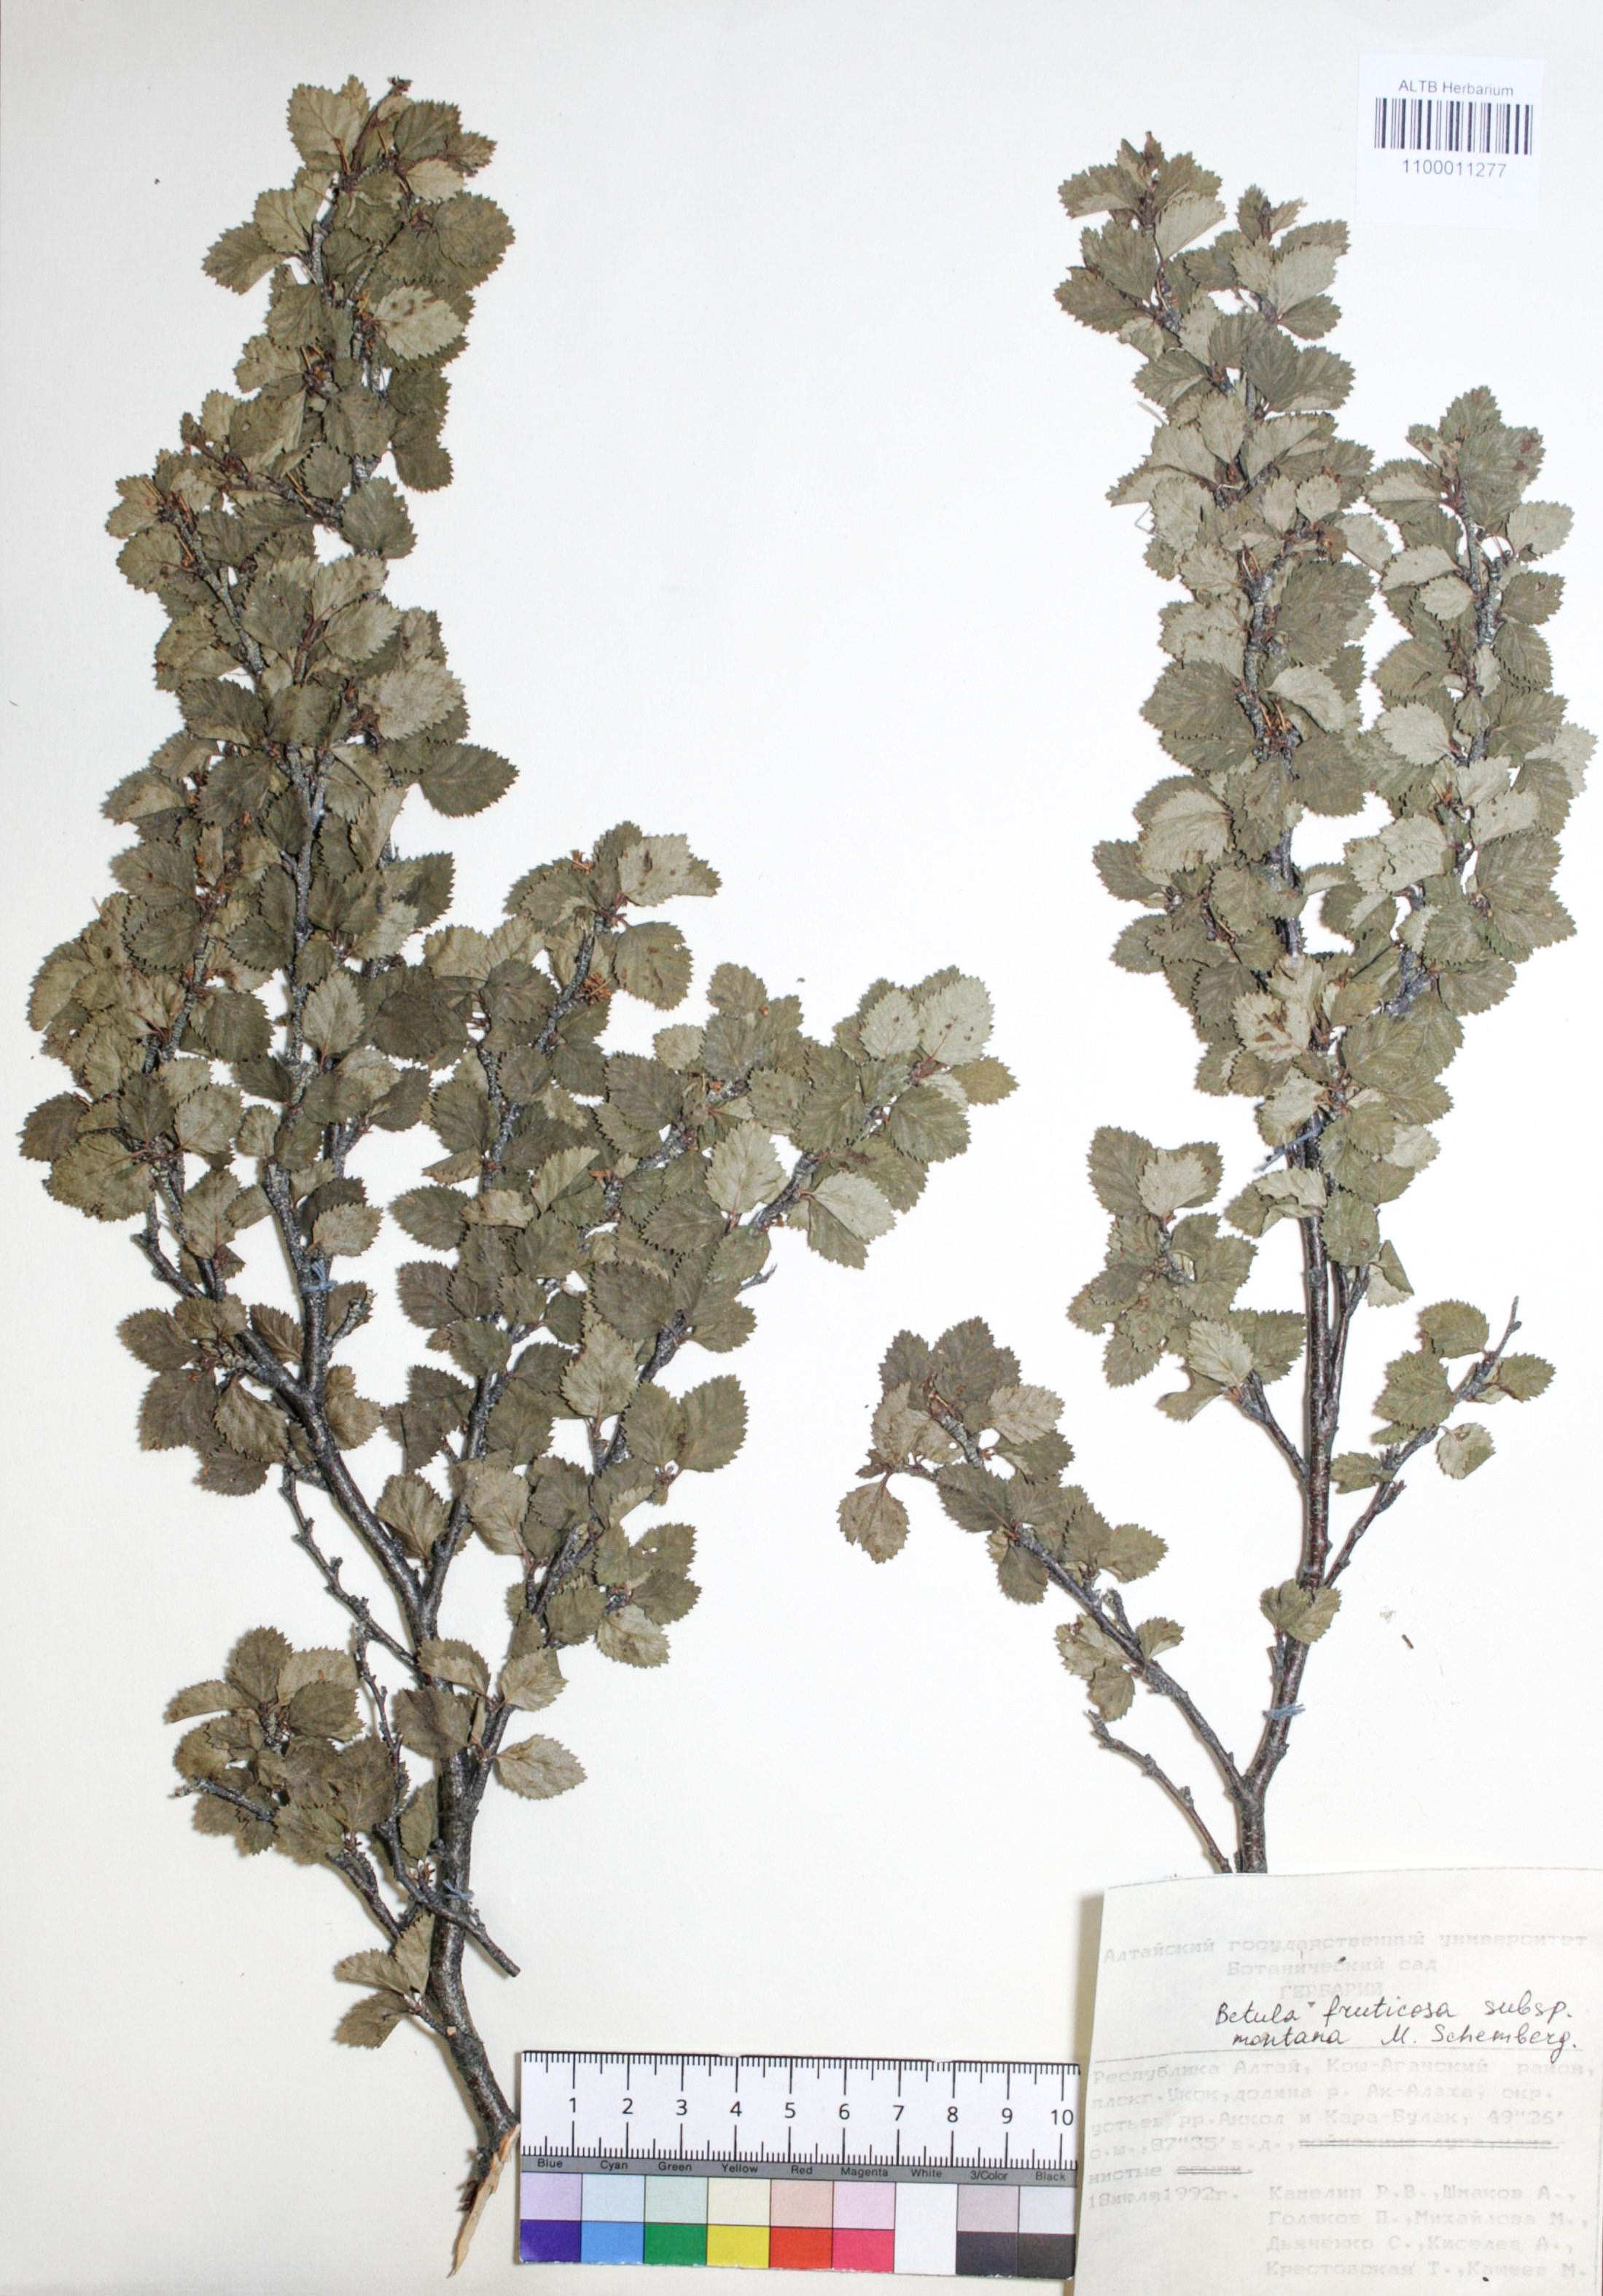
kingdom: Plantae
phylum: Tracheophyta
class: Magnoliopsida
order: Fagales
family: Betulaceae
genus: Betula
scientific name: Betula fruticosa
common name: Japanese bog birch
